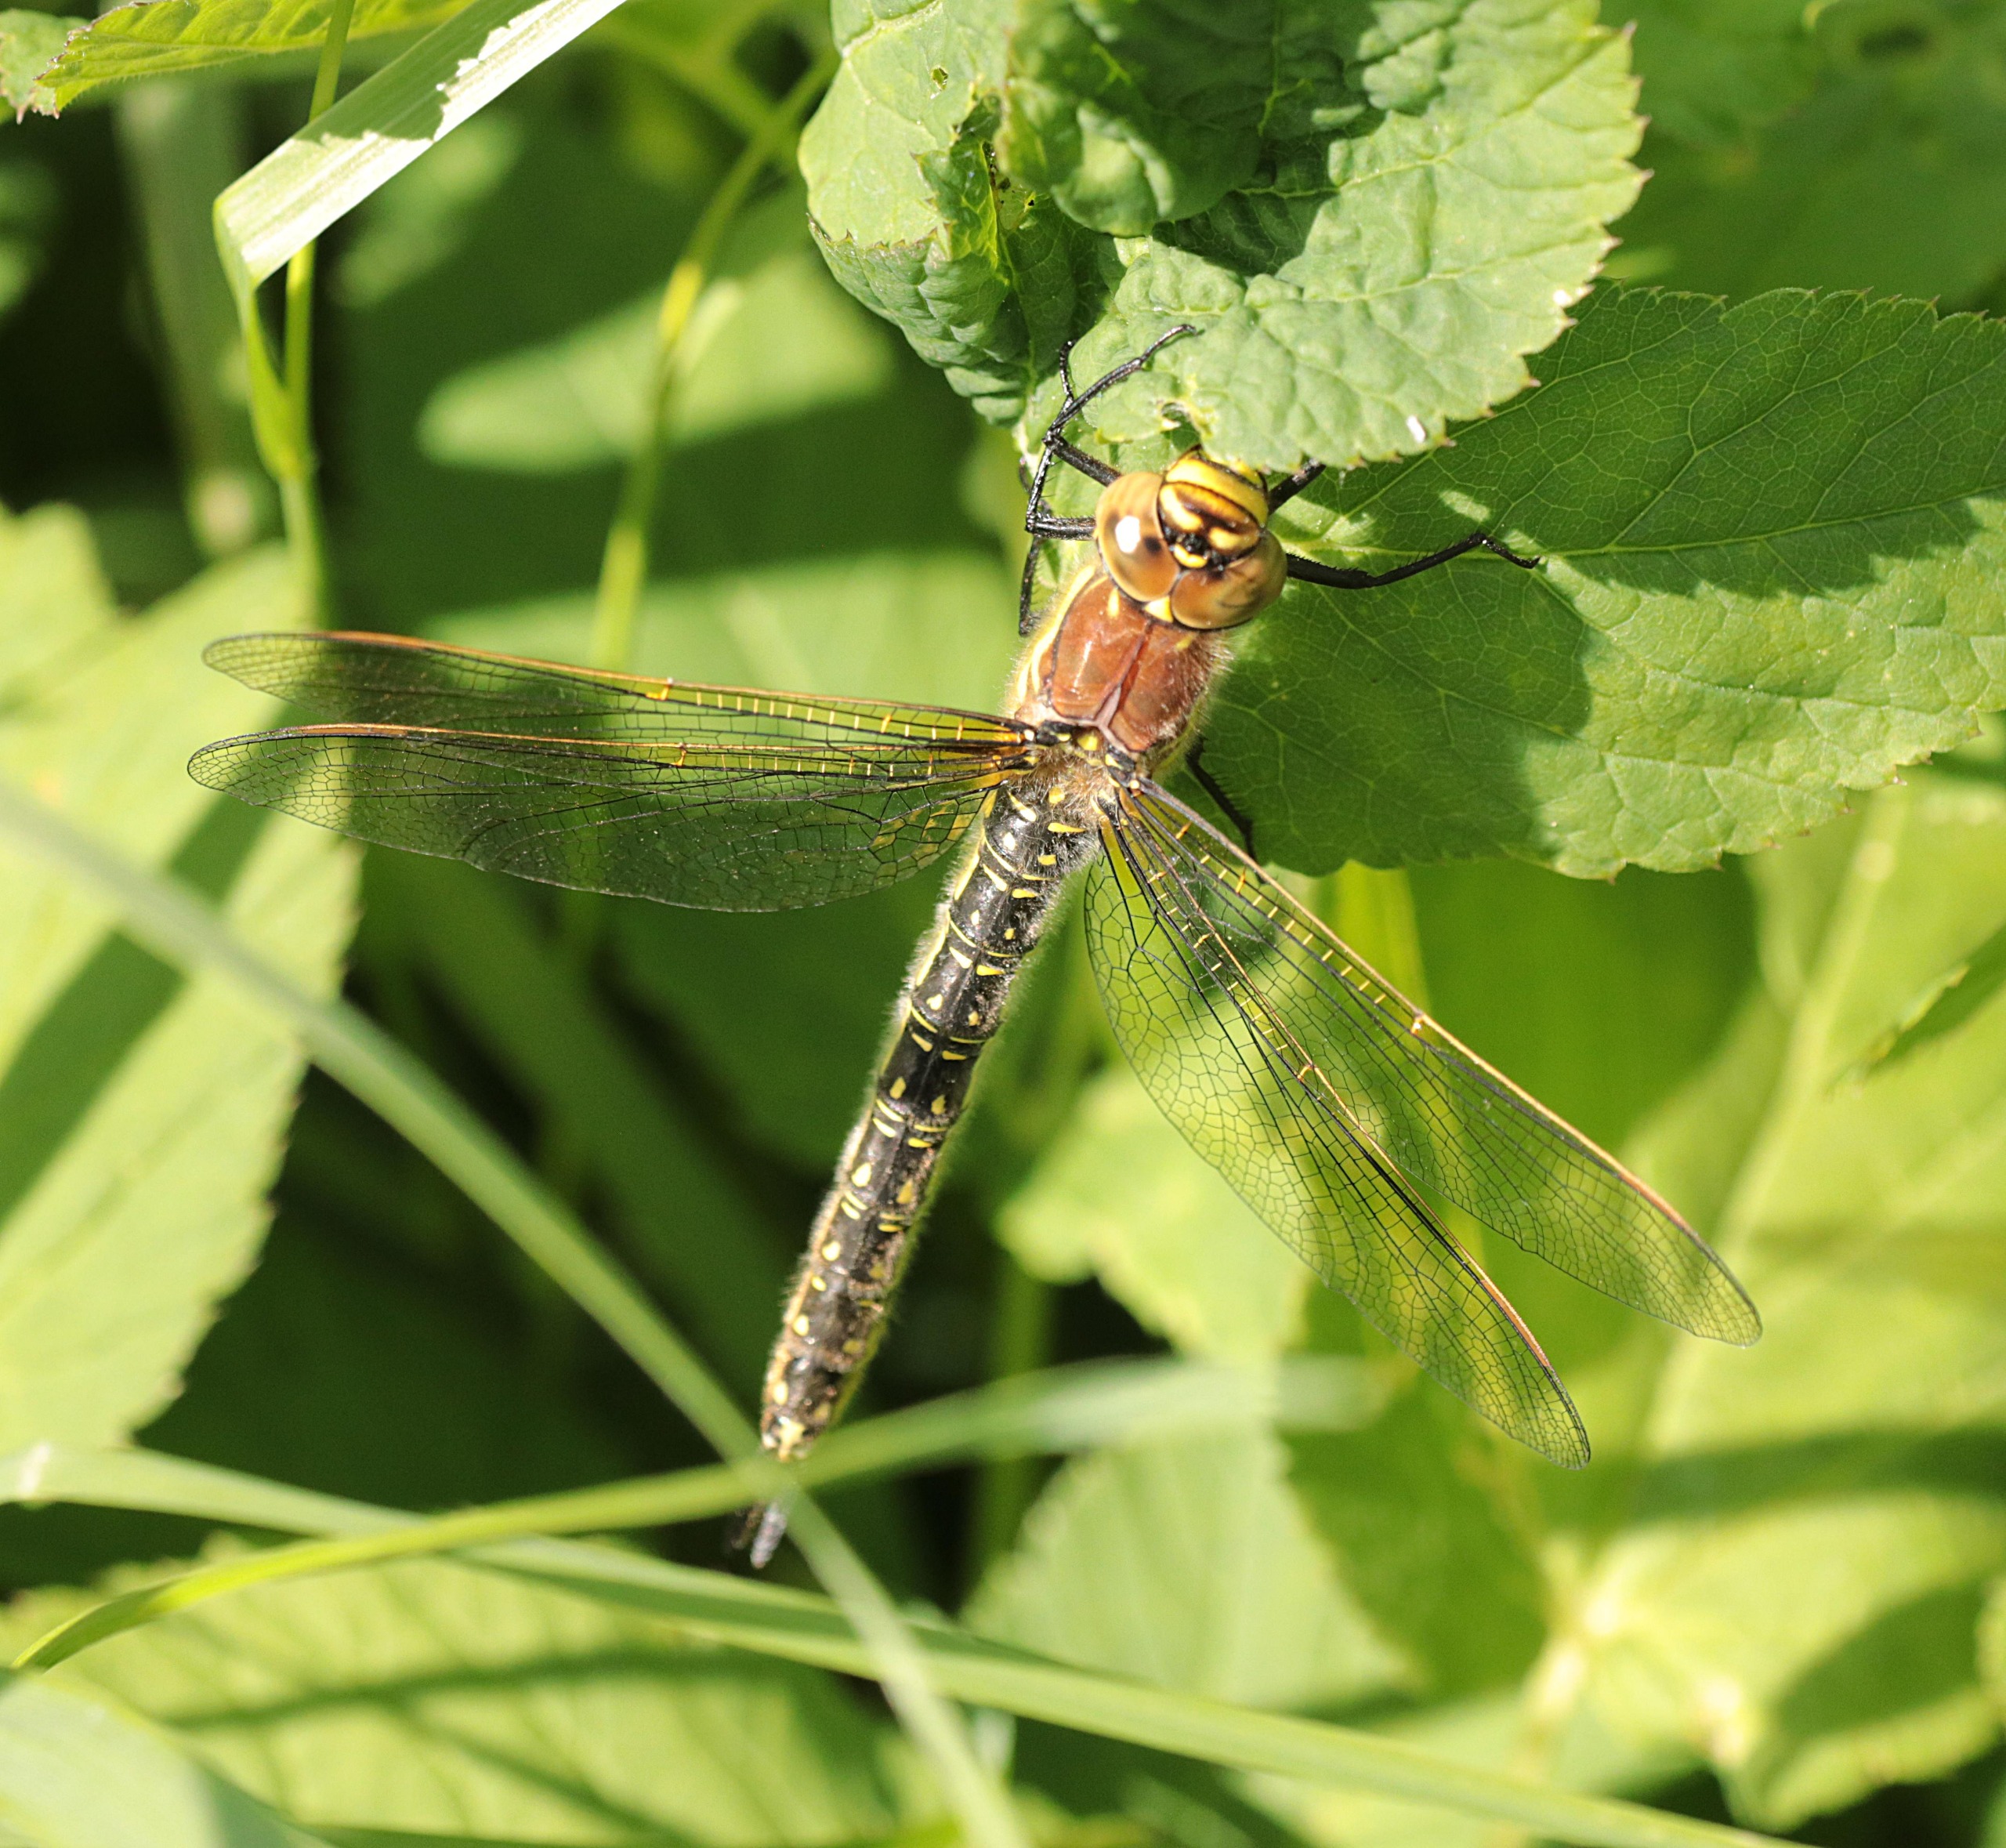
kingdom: Animalia
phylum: Arthropoda
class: Insecta
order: Odonata
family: Aeshnidae
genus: Brachytron
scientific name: Brachytron pratense
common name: Håret mosaikguldsmed
